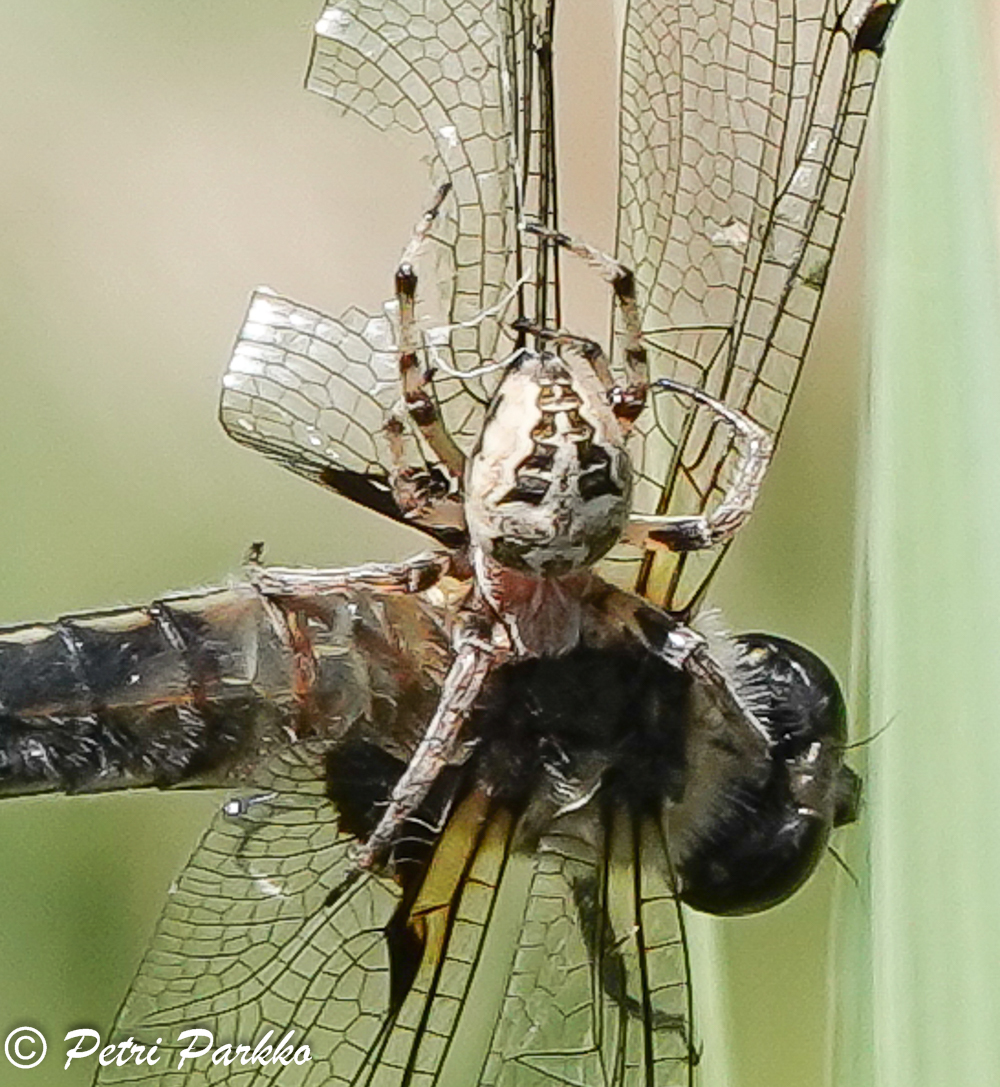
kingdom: Animalia
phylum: Arthropoda
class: Arachnida
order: Araneae
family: Araneidae
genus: Larinioides
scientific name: Larinioides cornutus
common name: Furrow orbweaver
